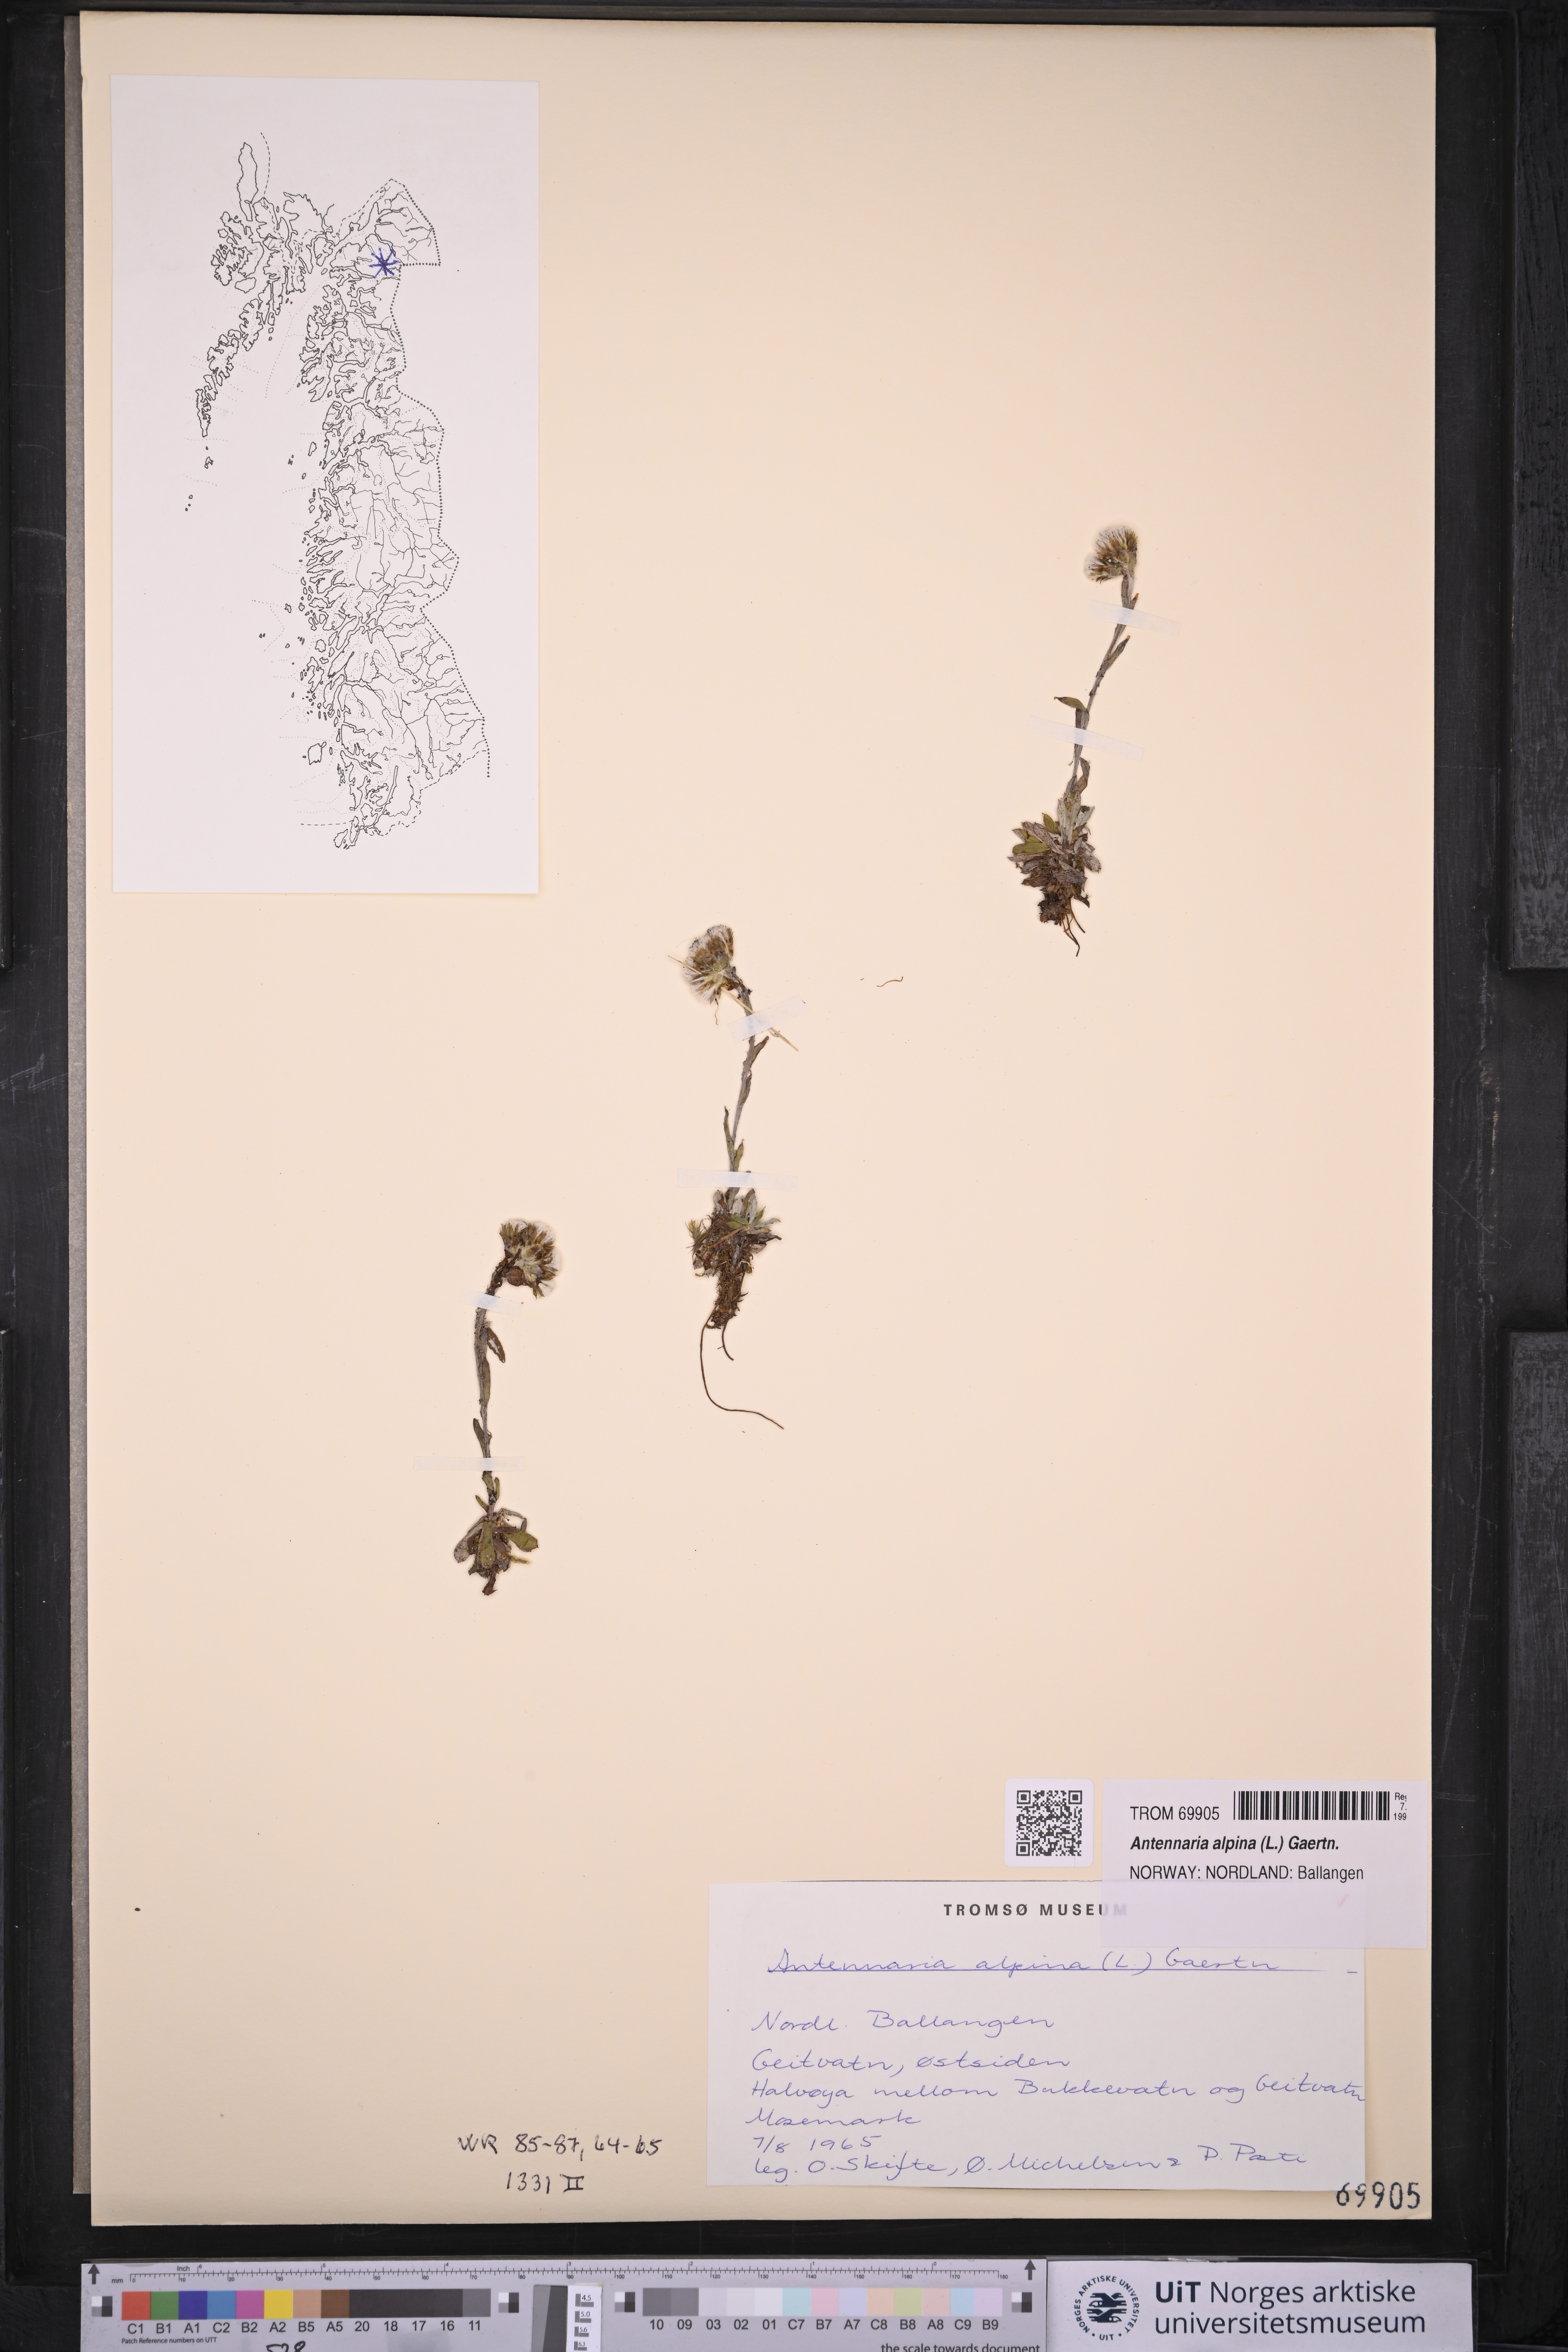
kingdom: Plantae
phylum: Tracheophyta
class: Magnoliopsida
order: Asterales
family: Asteraceae
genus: Antennaria
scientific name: Antennaria alpina
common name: Alpine pussytoes
